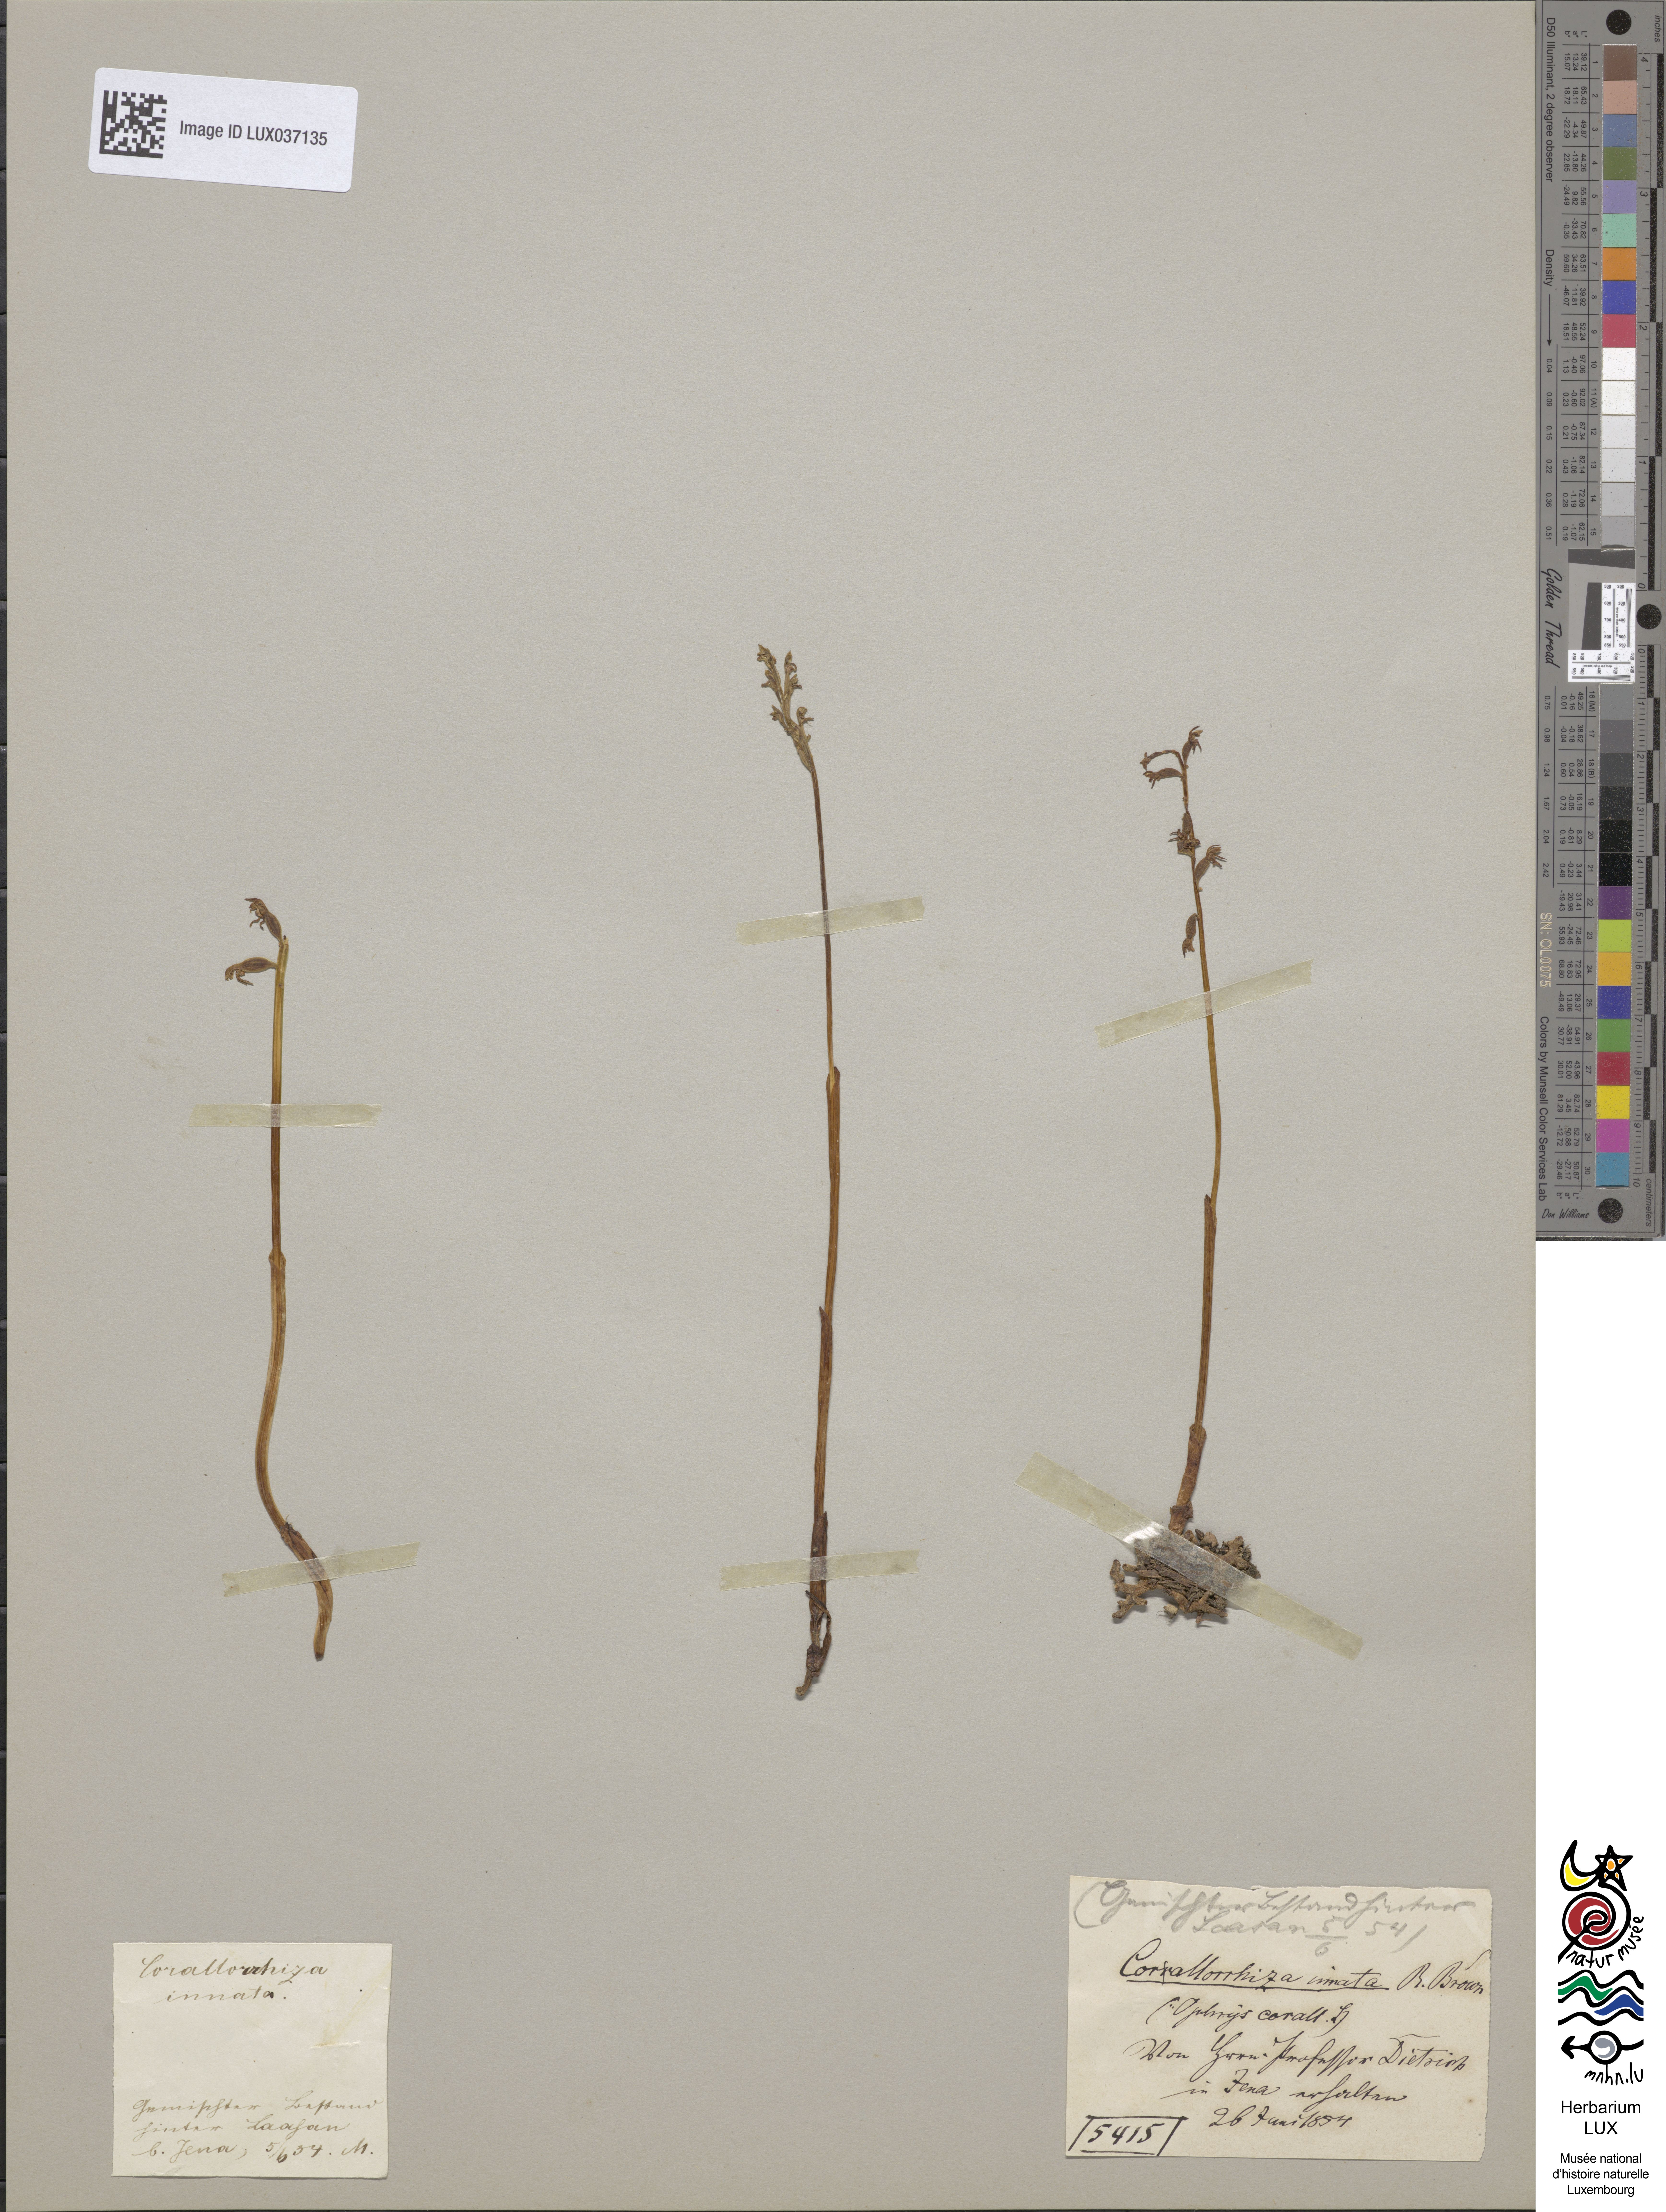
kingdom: Plantae
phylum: Tracheophyta
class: Liliopsida
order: Asparagales
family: Orchidaceae
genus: Corallorhiza
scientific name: Corallorhiza trifida
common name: Yellow coralroot
